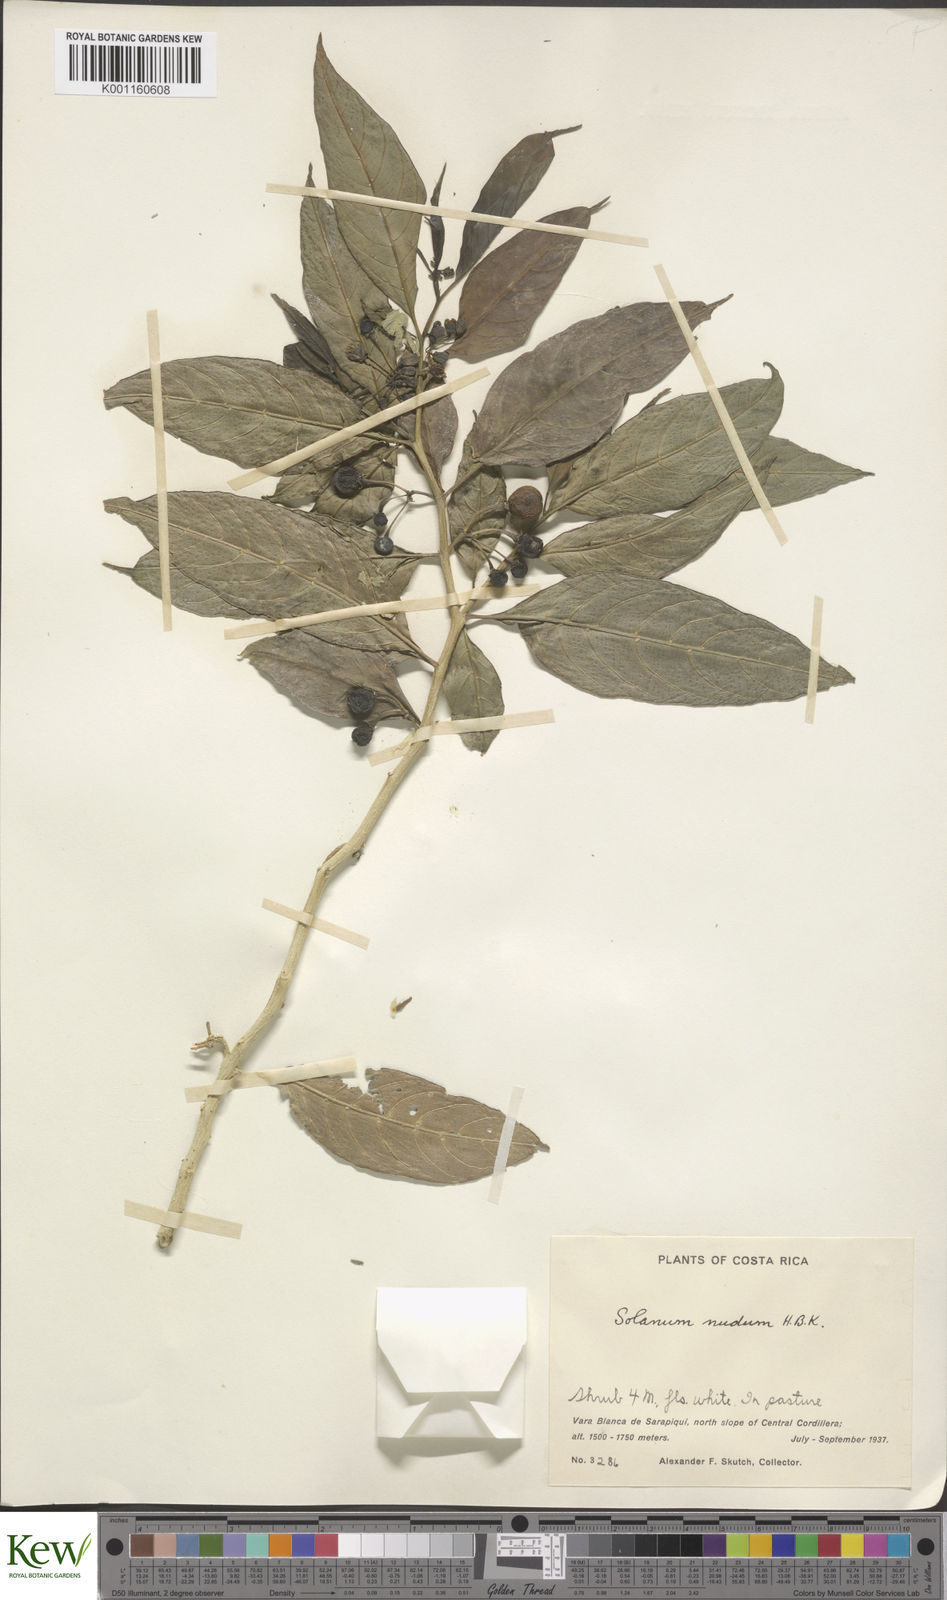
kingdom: Plantae
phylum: Tracheophyta
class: Magnoliopsida
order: Solanales
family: Solanaceae
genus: Solanum
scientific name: Solanum nudum
